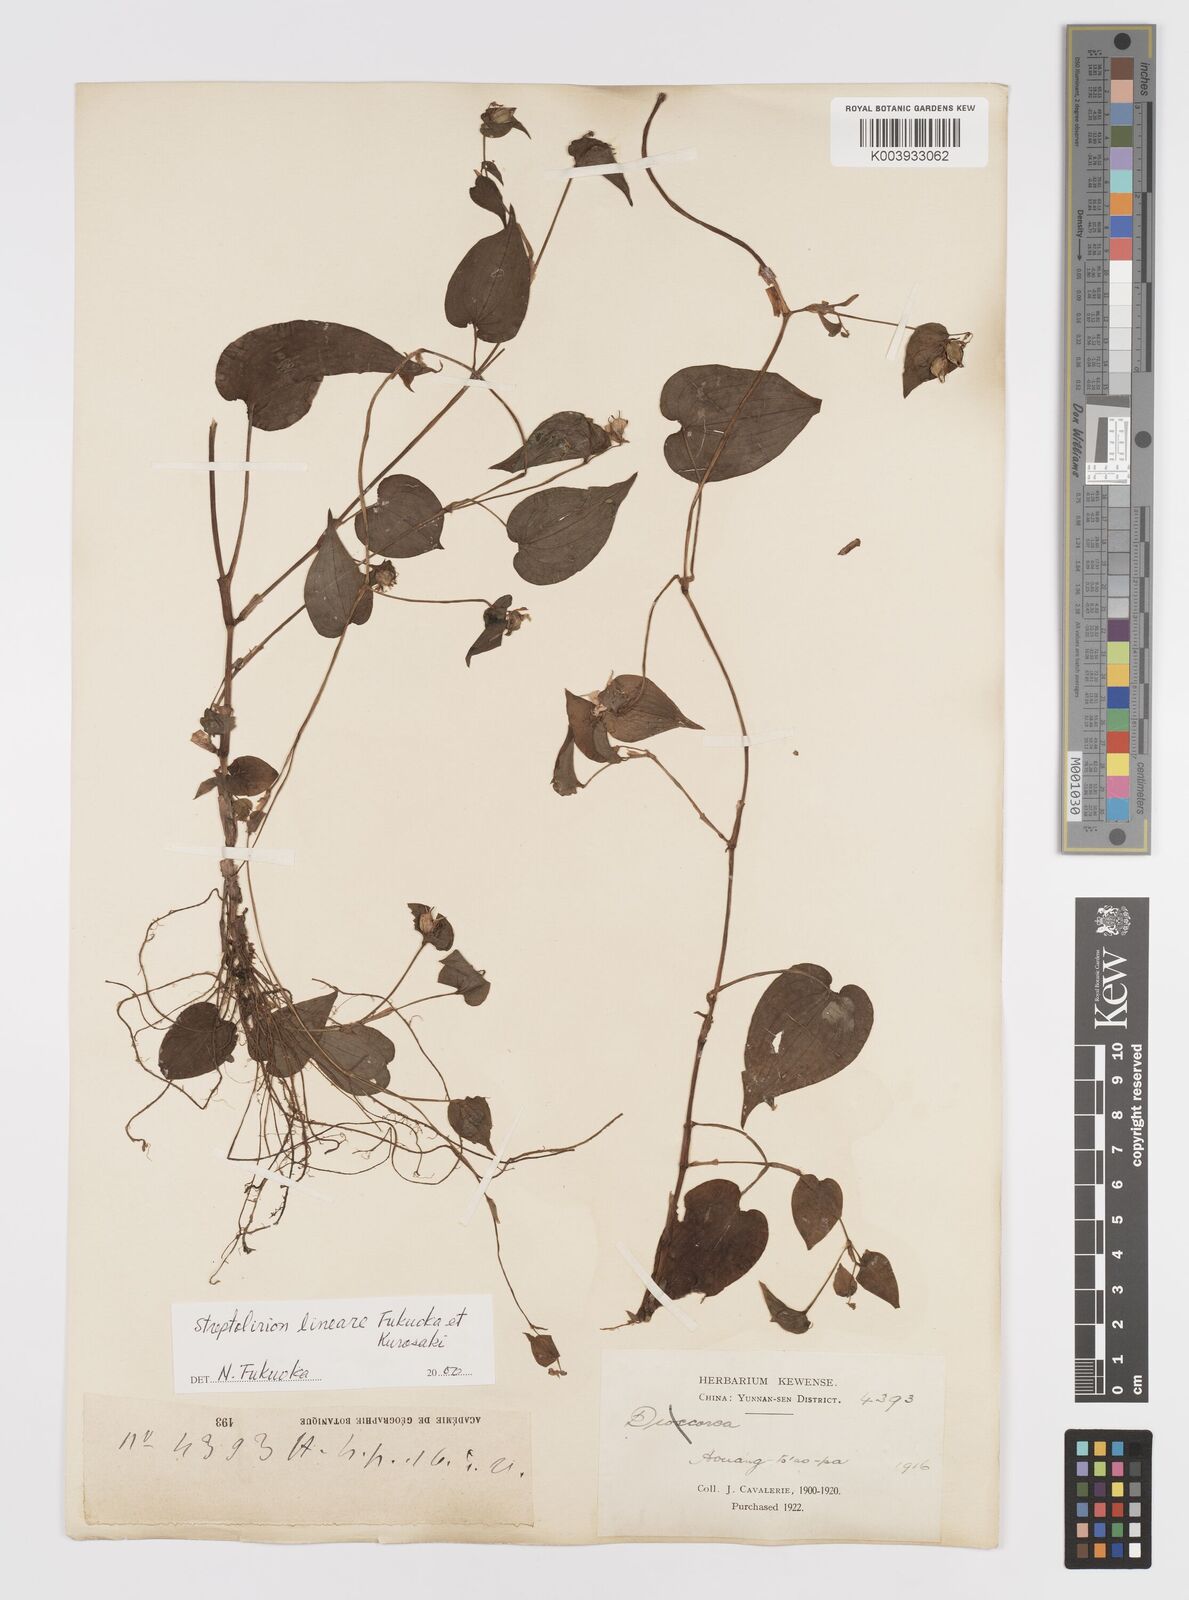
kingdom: Plantae
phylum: Tracheophyta
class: Liliopsida
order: Commelinales
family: Commelinaceae
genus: Streptolirion
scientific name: Streptolirion lineare
